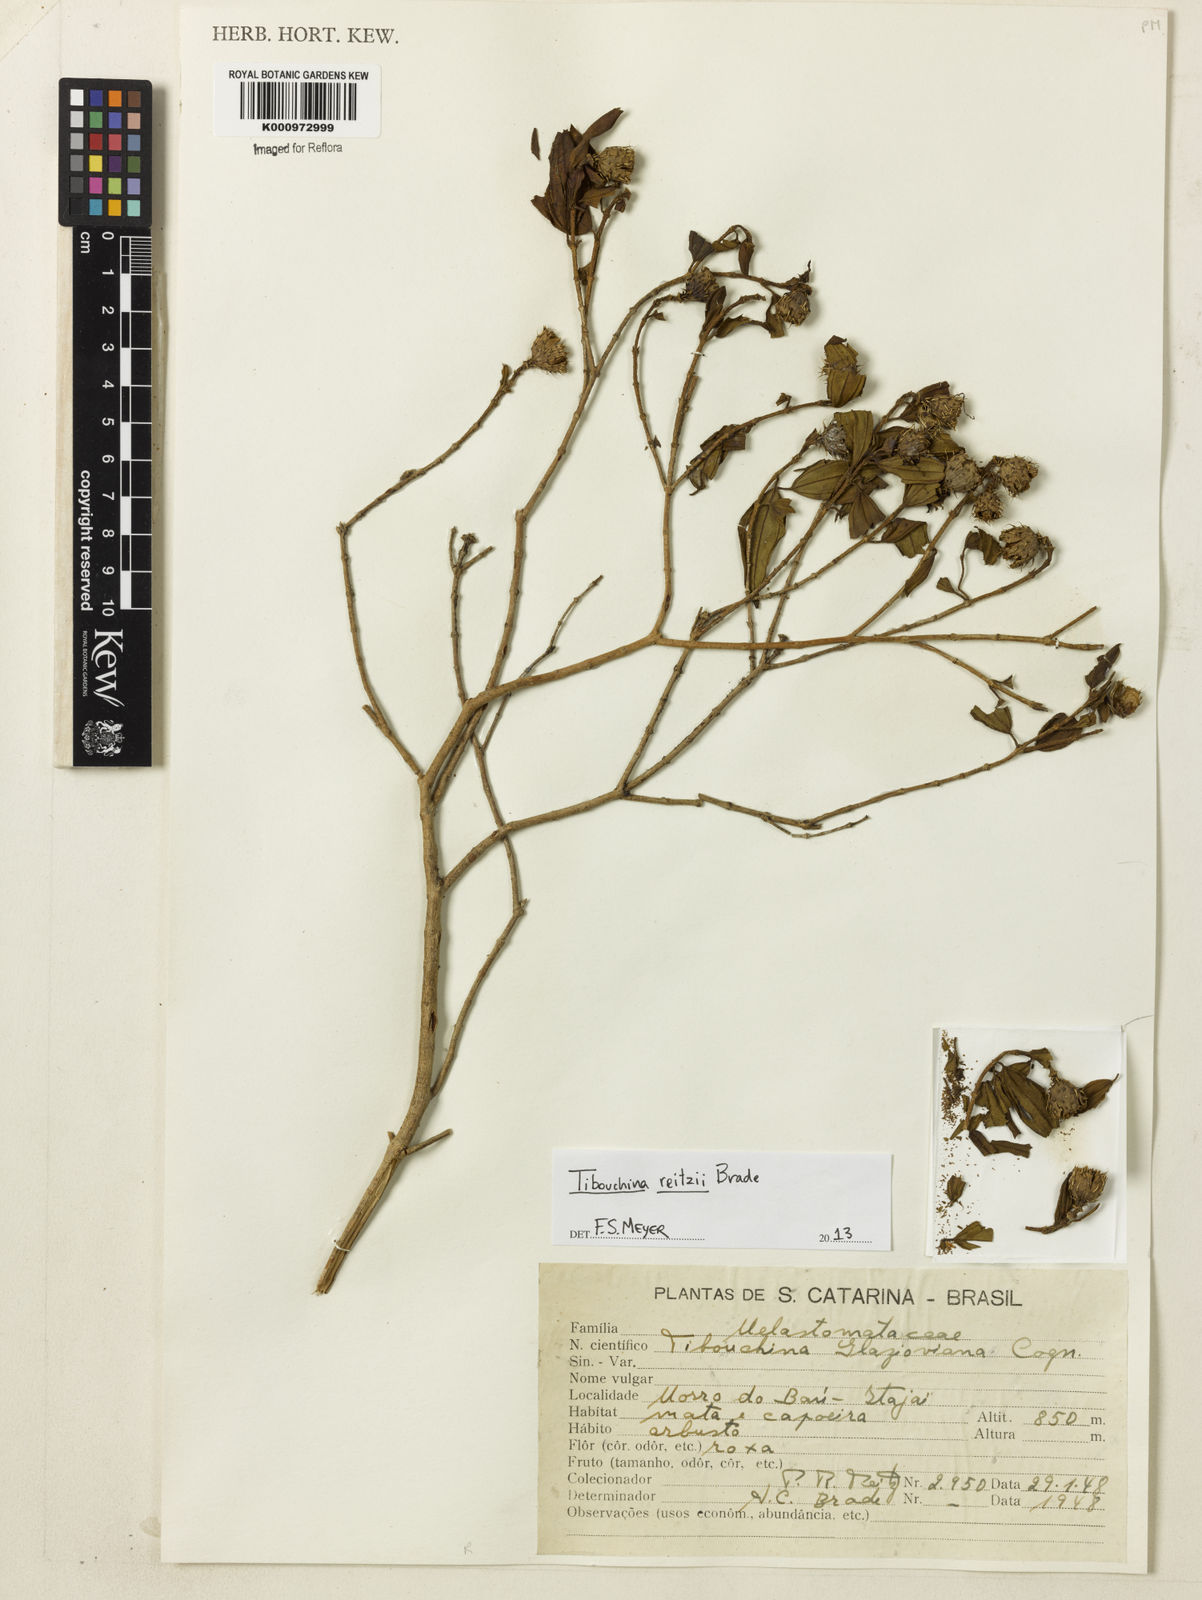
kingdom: Plantae
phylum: Tracheophyta
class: Magnoliopsida
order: Myrtales
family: Melastomataceae
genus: Pleroma
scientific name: Pleroma reitzii
